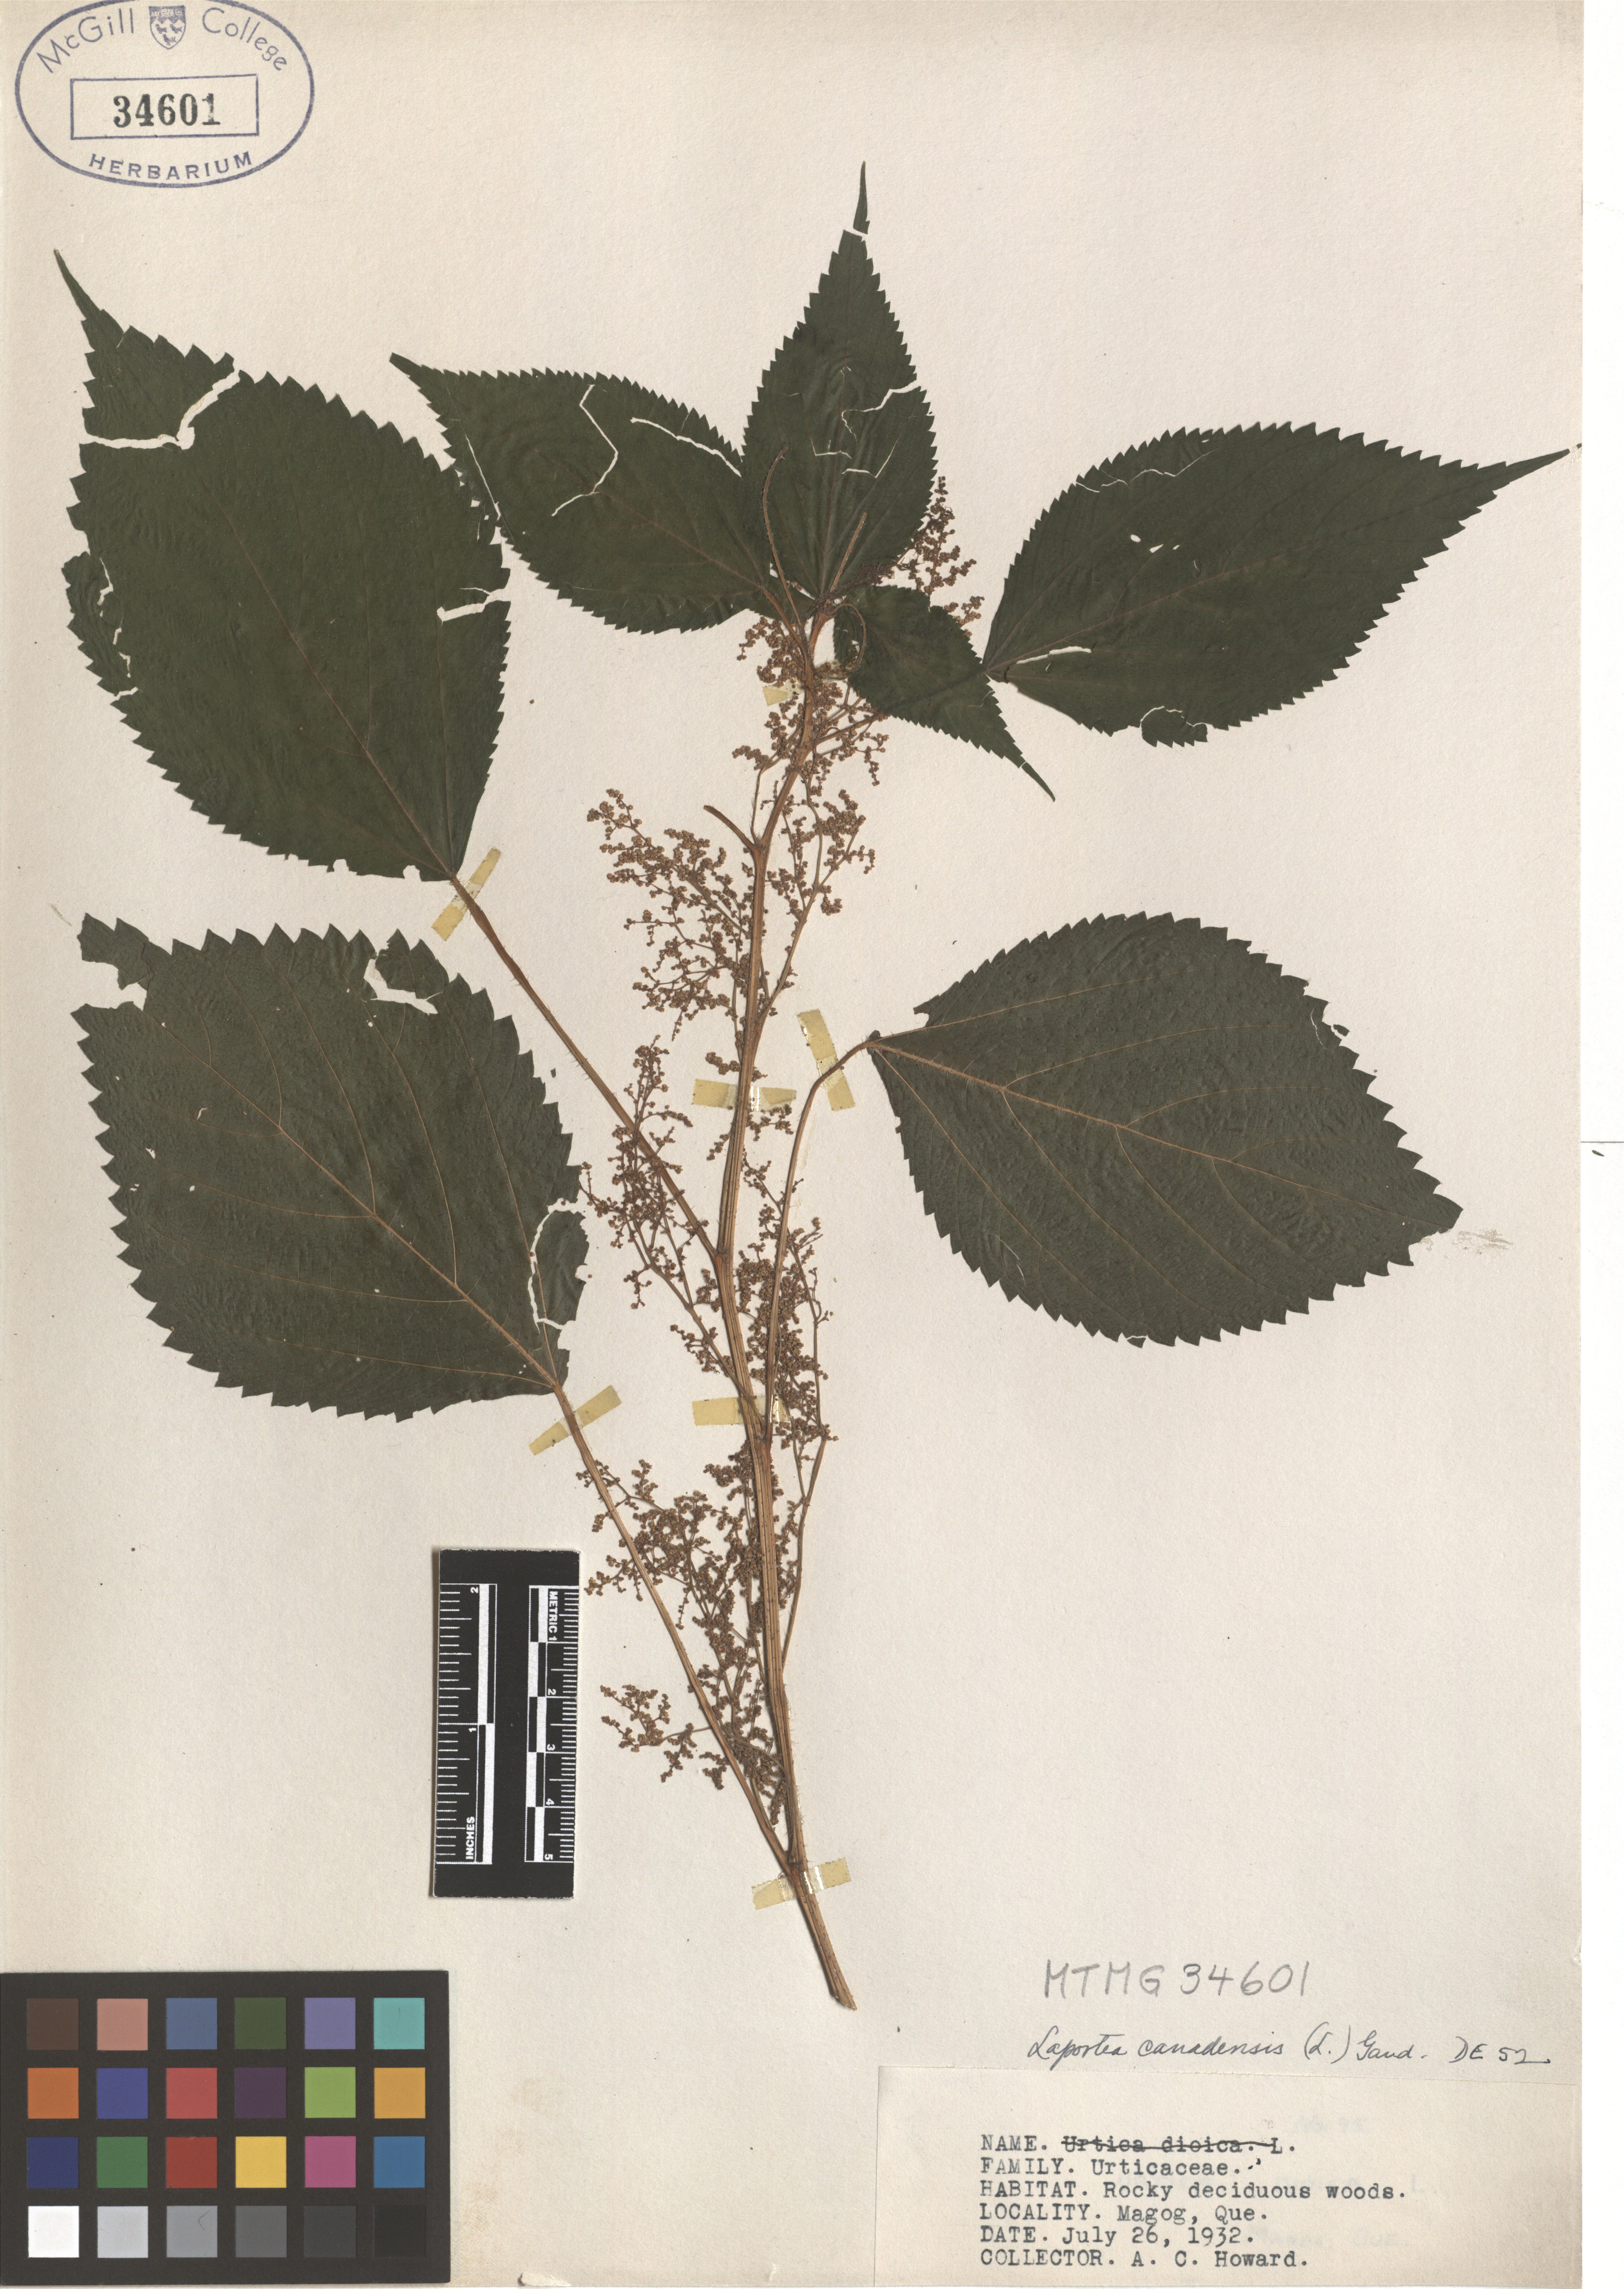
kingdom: Plantae
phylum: Tracheophyta
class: Magnoliopsida
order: Rosales
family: Urticaceae
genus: Laportea
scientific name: Laportea canadensis
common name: Canada nettle
